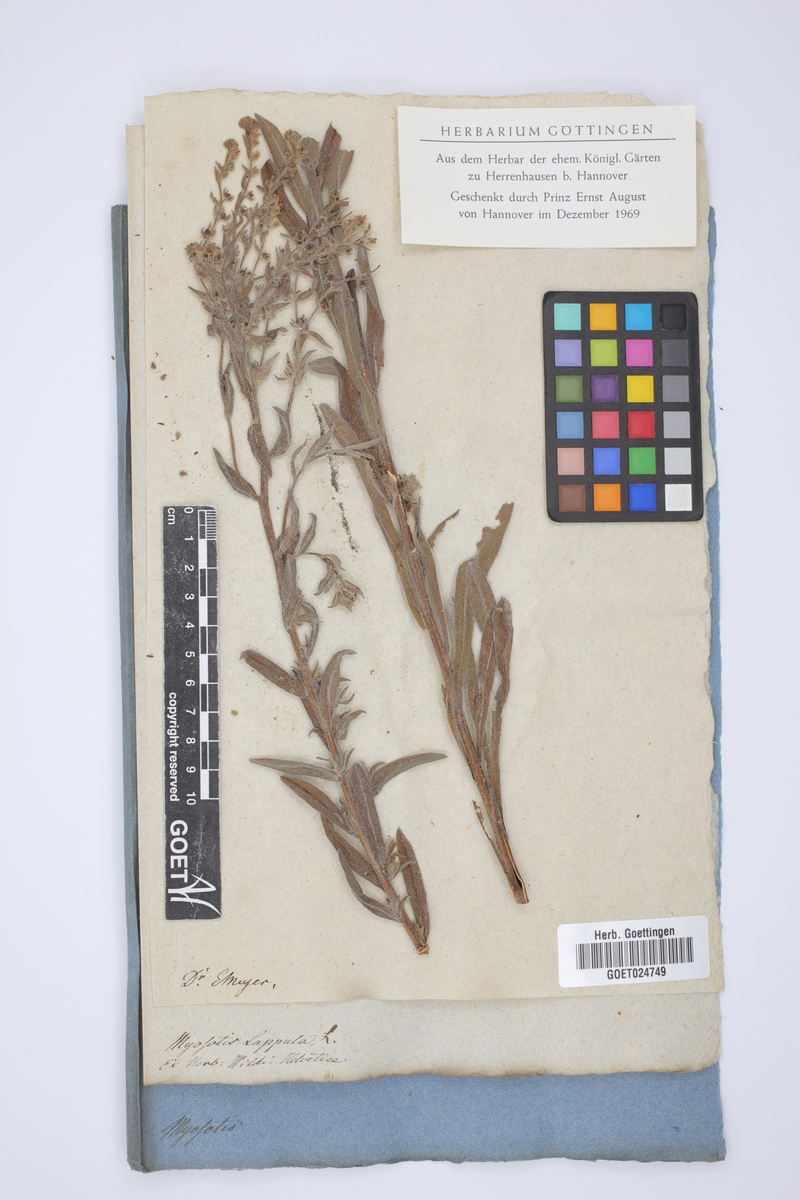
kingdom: Plantae
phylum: Tracheophyta
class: Magnoliopsida
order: Boraginales
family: Boraginaceae
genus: Lappula
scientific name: Lappula squarrosa
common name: European stickseed
